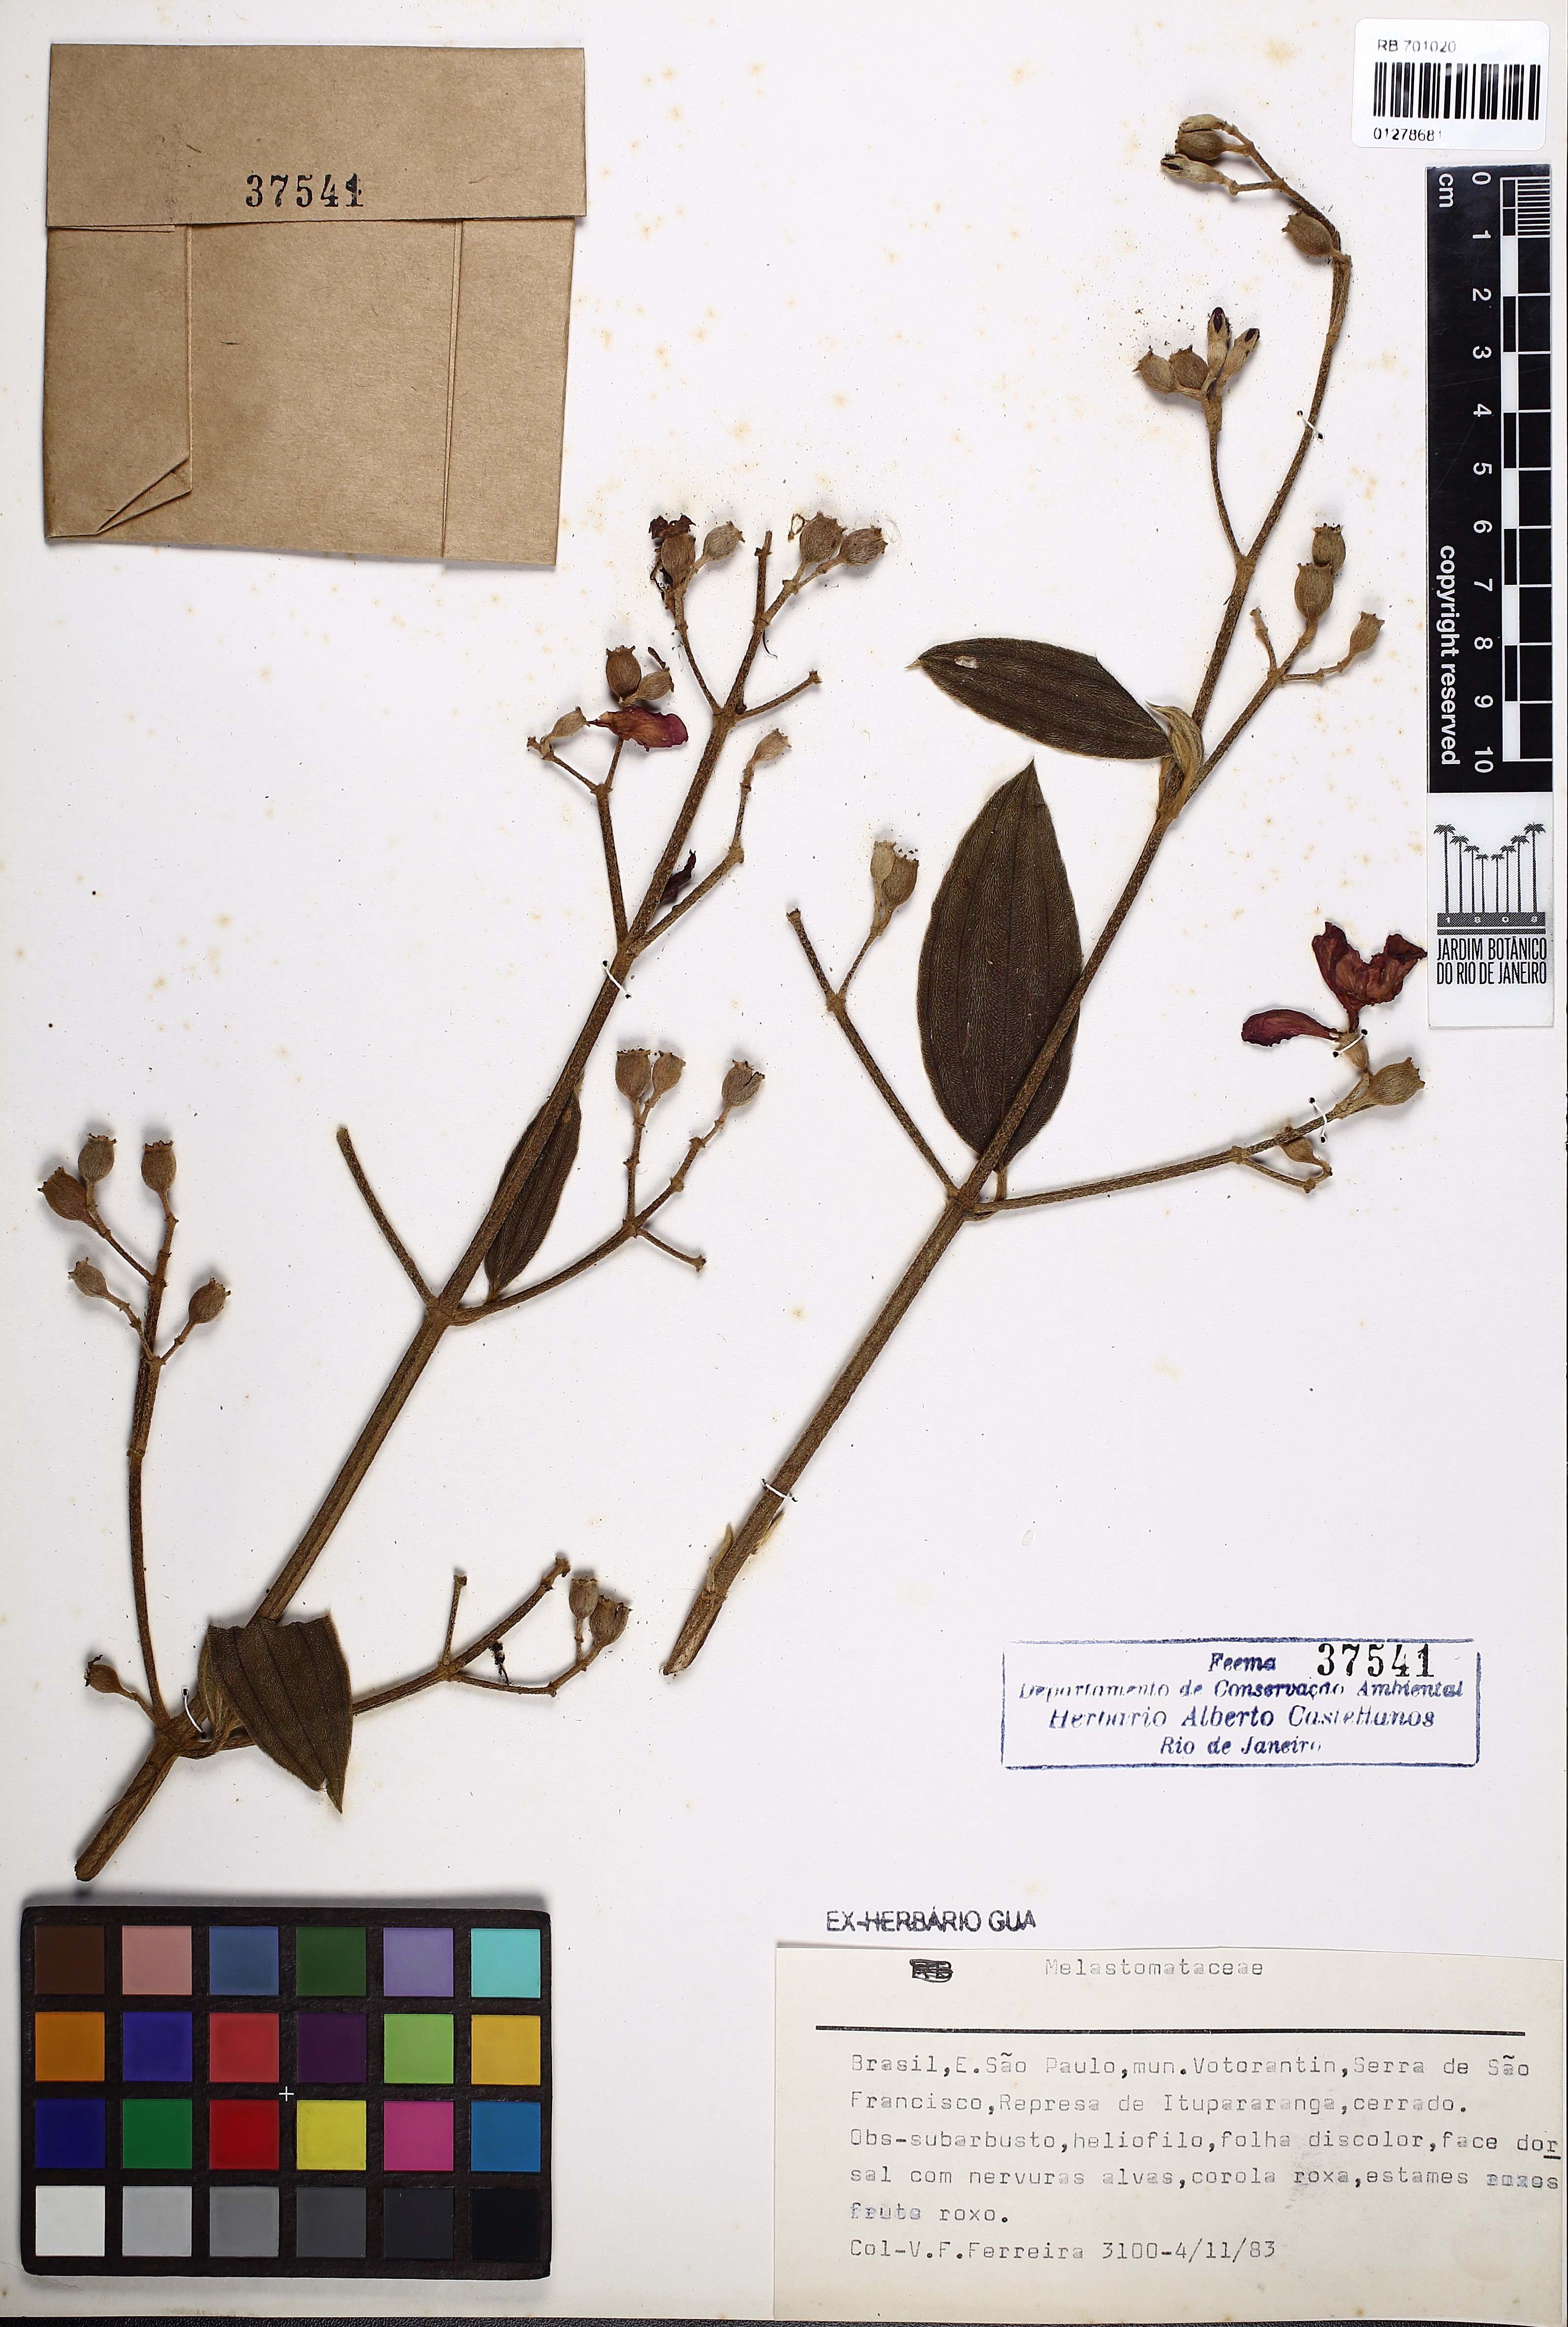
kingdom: Plantae
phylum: Tracheophyta
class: Magnoliopsida
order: Myrtales
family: Melastomataceae
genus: Pleroma
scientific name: Pleroma
